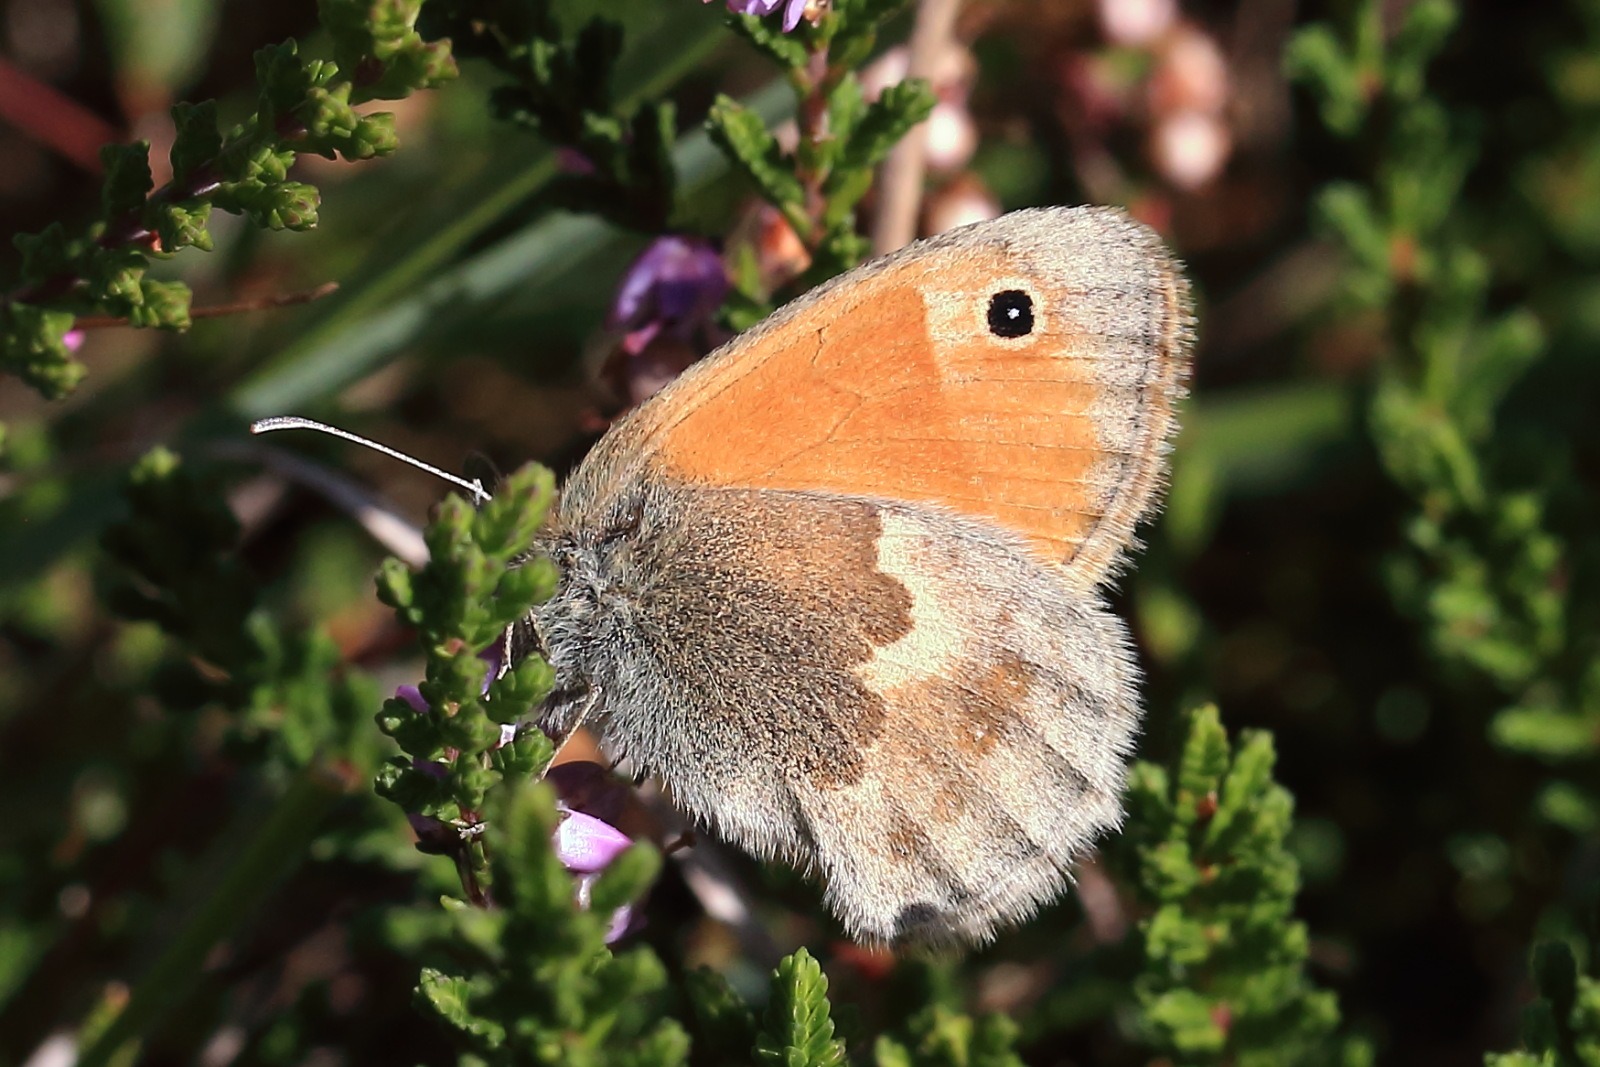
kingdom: Animalia
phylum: Arthropoda
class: Insecta
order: Lepidoptera
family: Nymphalidae
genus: Coenonympha
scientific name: Coenonympha pamphilus
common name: Okkergul randøje
